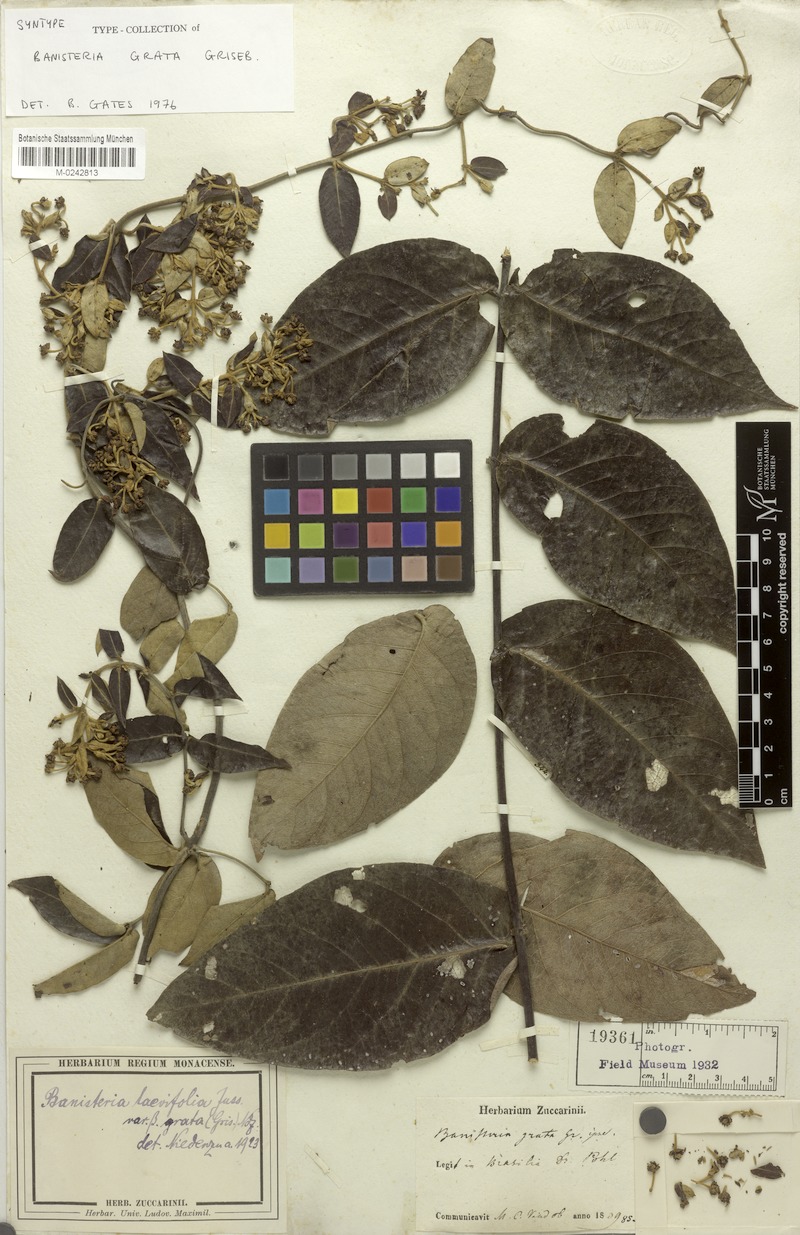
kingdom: Plantae
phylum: Tracheophyta
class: Magnoliopsida
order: Malpighiales
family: Malpighiaceae
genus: Banisteriopsis
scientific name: Banisteriopsis laevifolia
